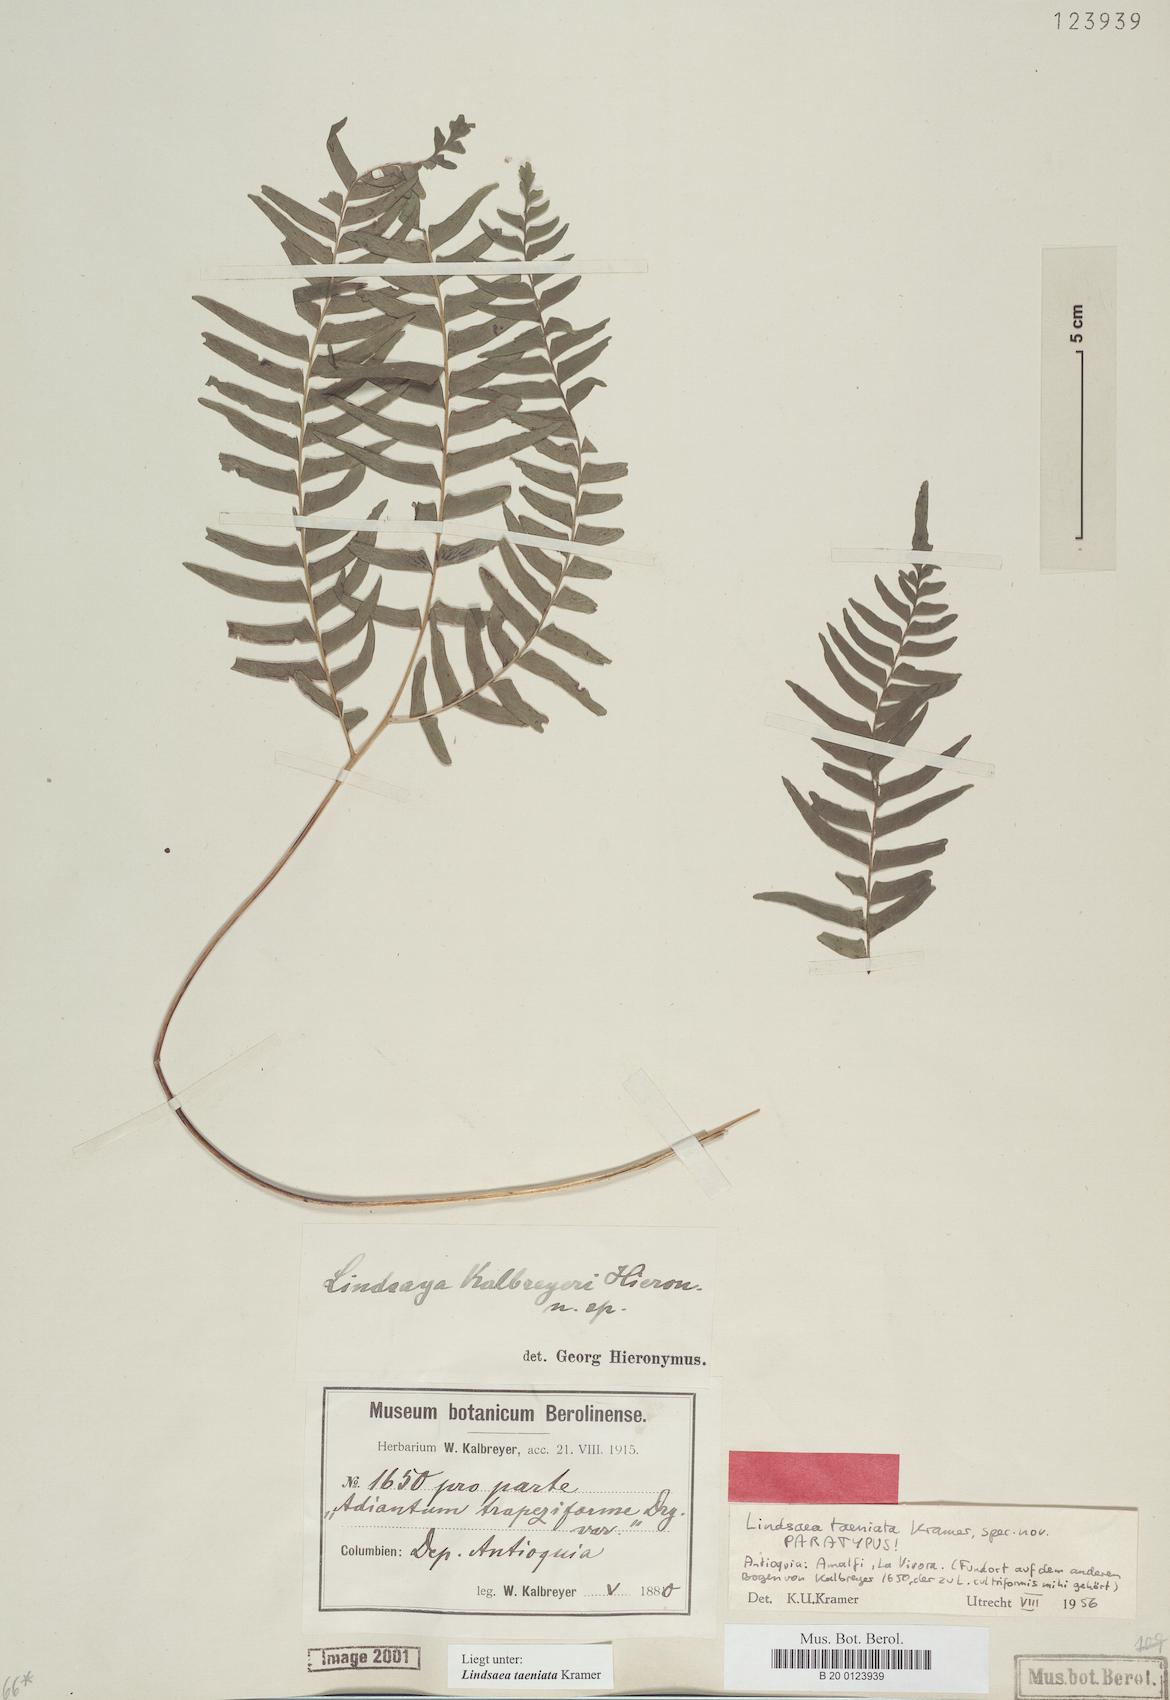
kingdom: Plantae
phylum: Tracheophyta
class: Polypodiopsida
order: Polypodiales
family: Lindsaeaceae
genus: Lindsaea
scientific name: Lindsaea taeniata
